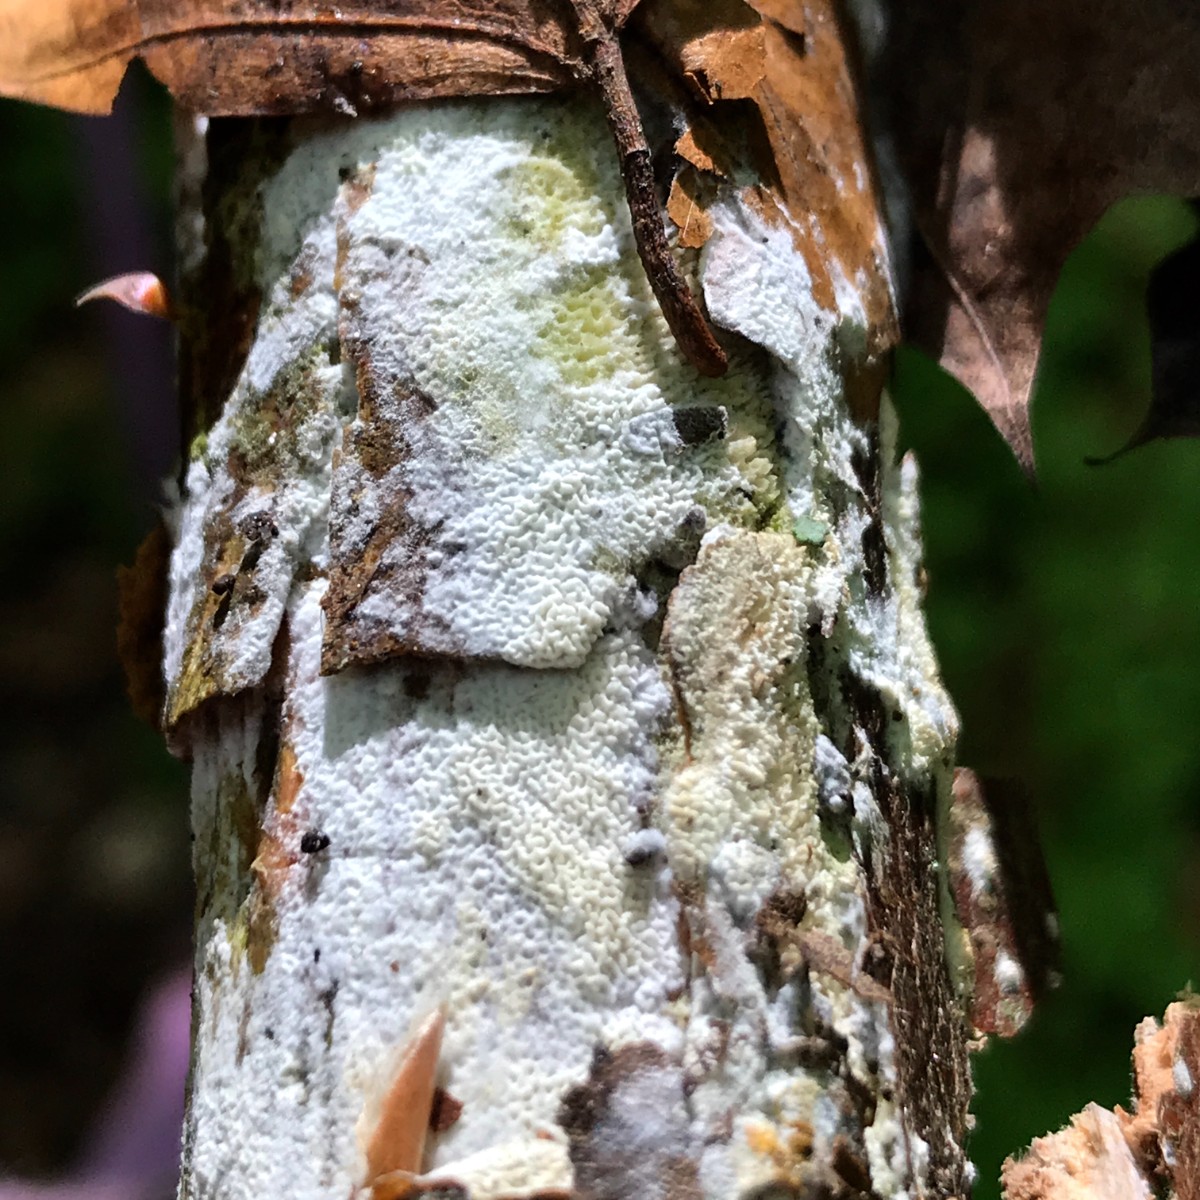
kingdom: Fungi
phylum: Basidiomycota
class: Agaricomycetes
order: Hymenochaetales
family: Schizoporaceae
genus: Xylodon
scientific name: Xylodon
